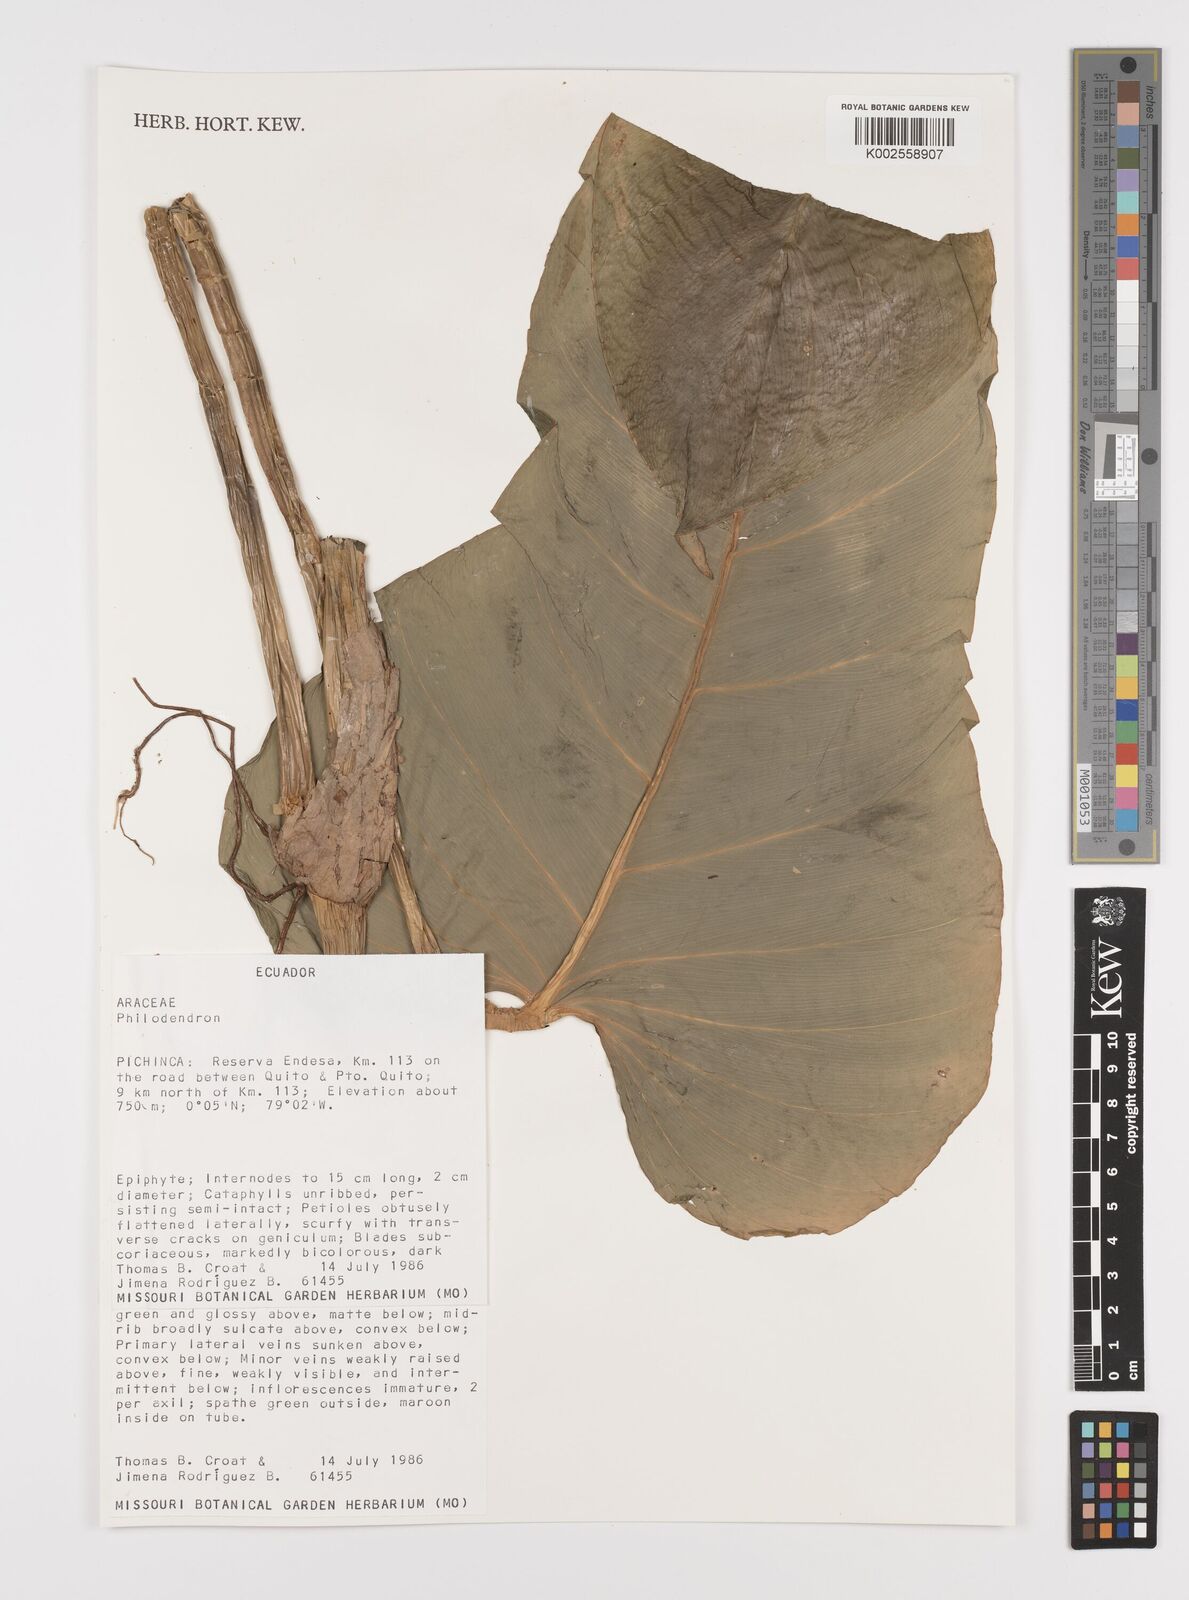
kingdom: Plantae
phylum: Tracheophyta
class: Liliopsida
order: Alismatales
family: Araceae
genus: Philodendron
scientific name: Philodendron hebetatum
